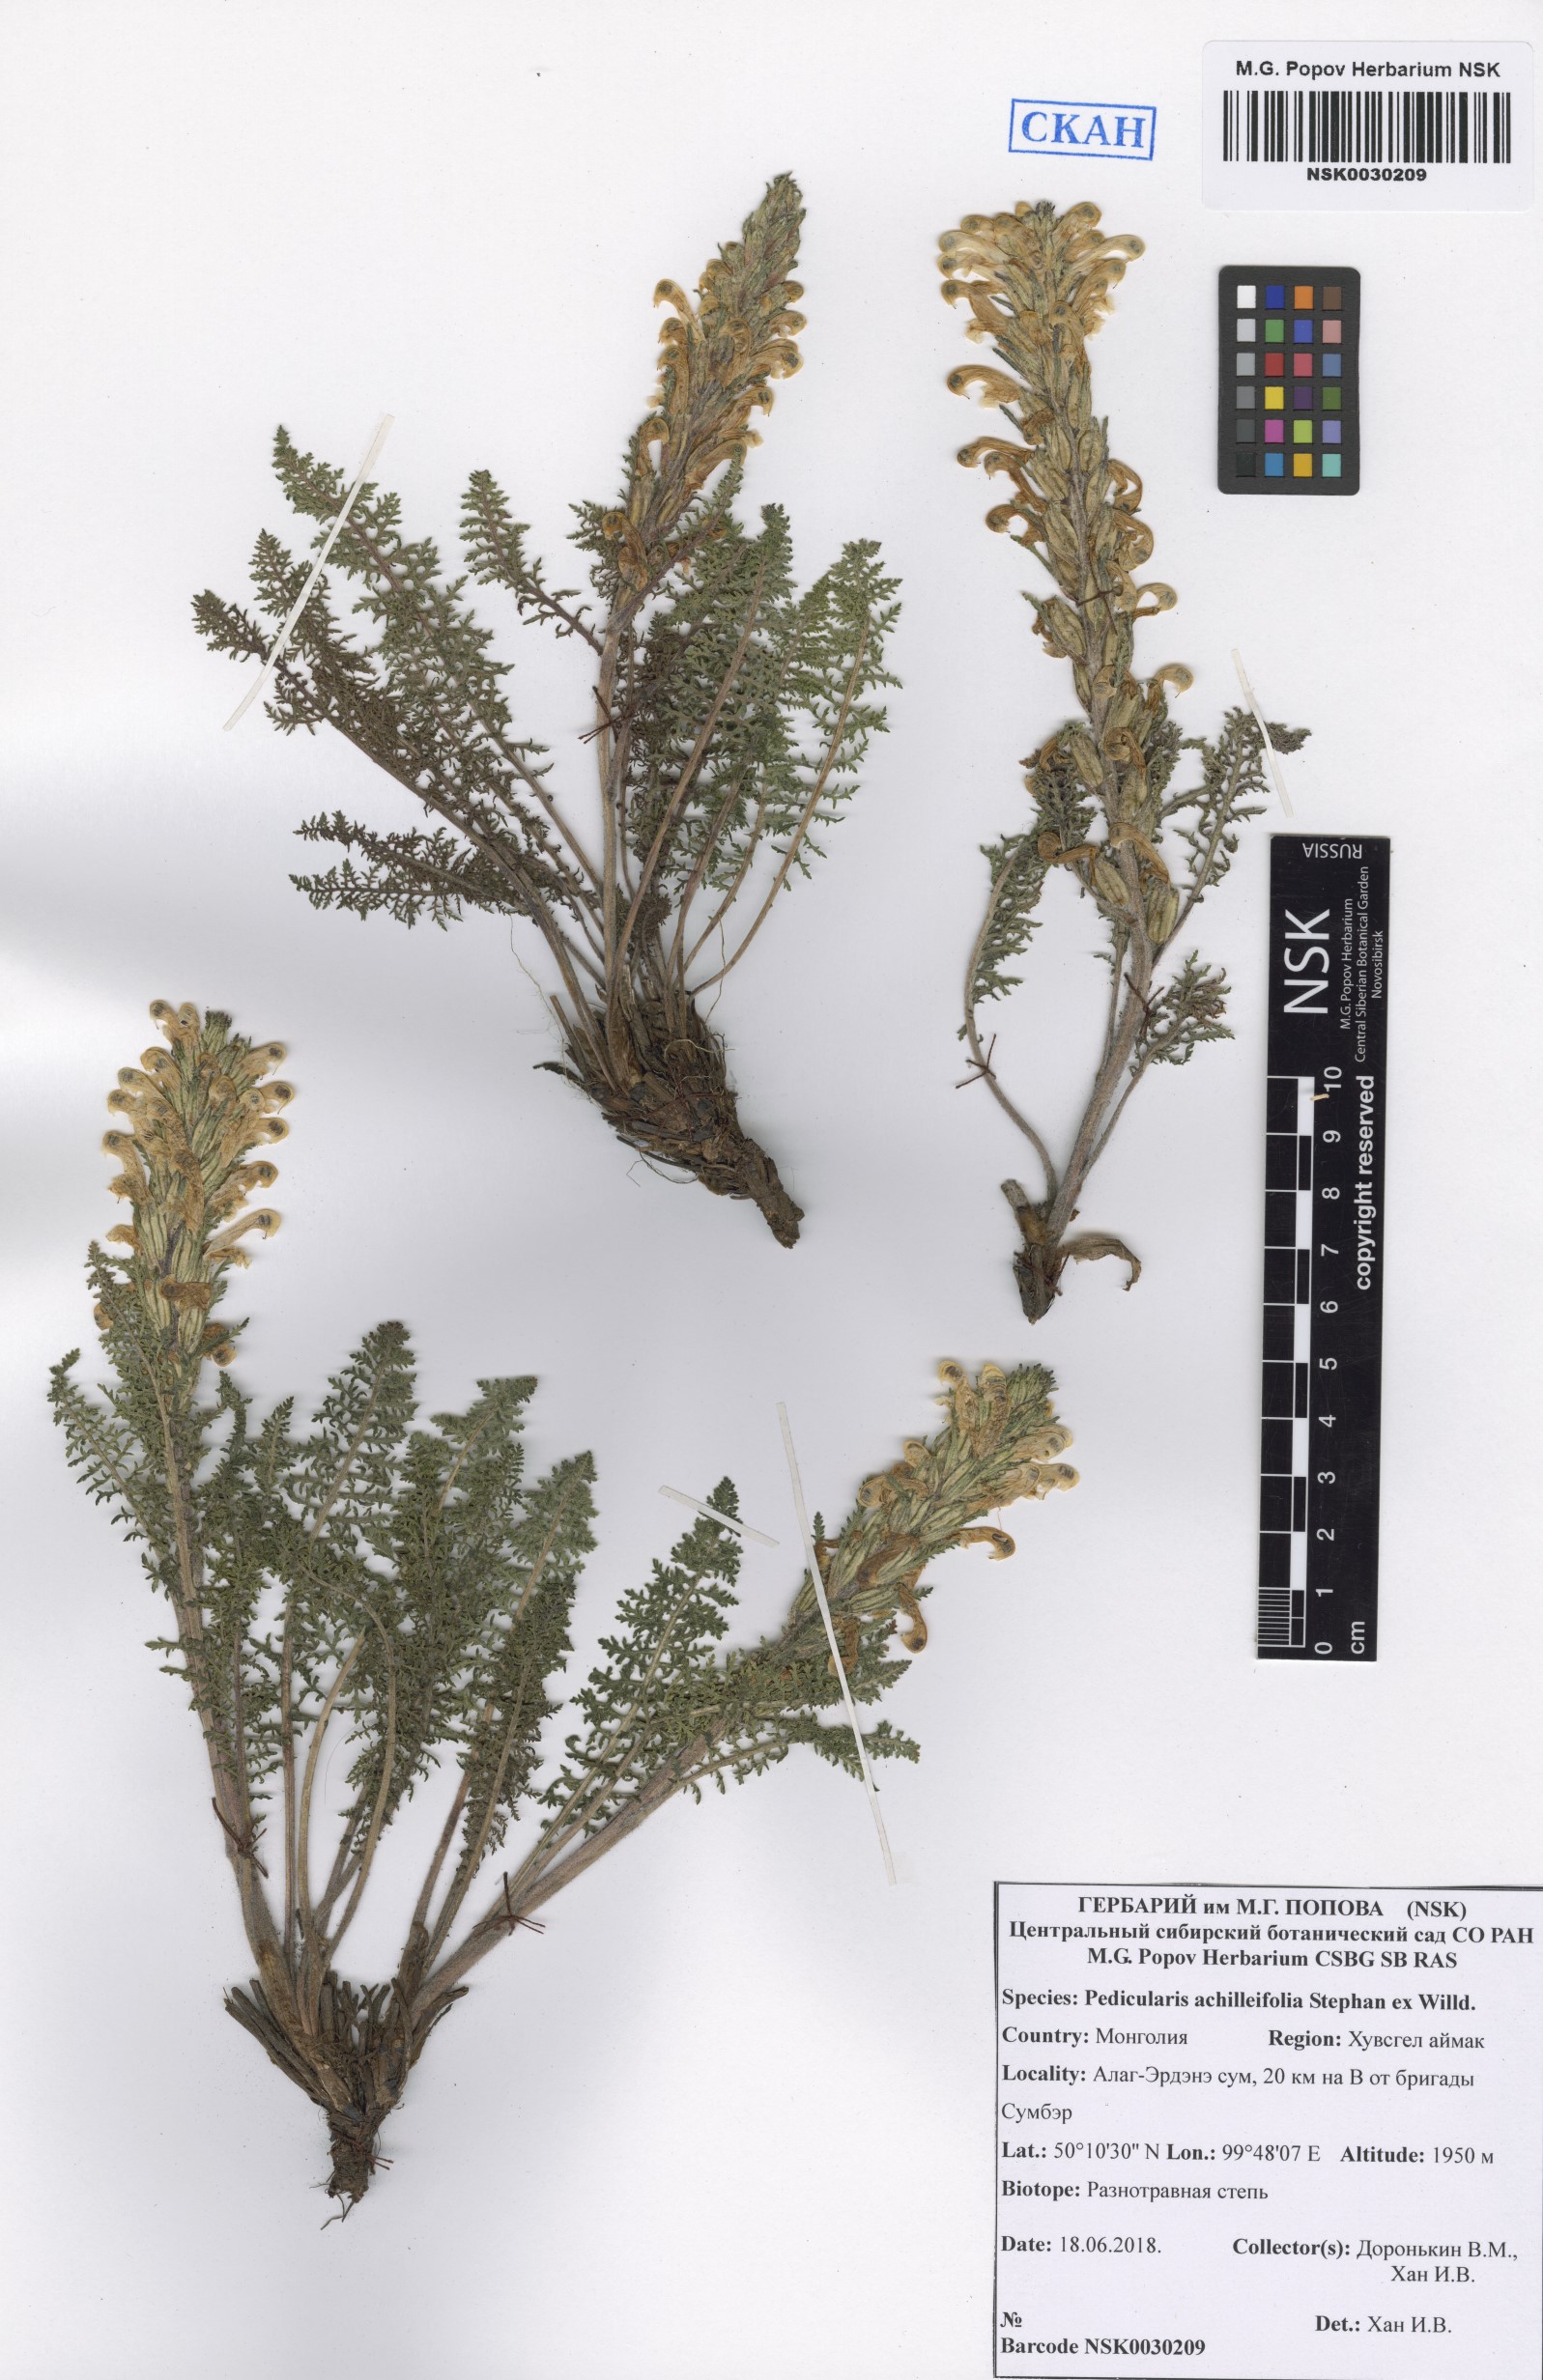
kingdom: Plantae
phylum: Tracheophyta
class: Magnoliopsida
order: Lamiales
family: Orobanchaceae
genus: Pedicularis
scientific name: Pedicularis achilleifolia
